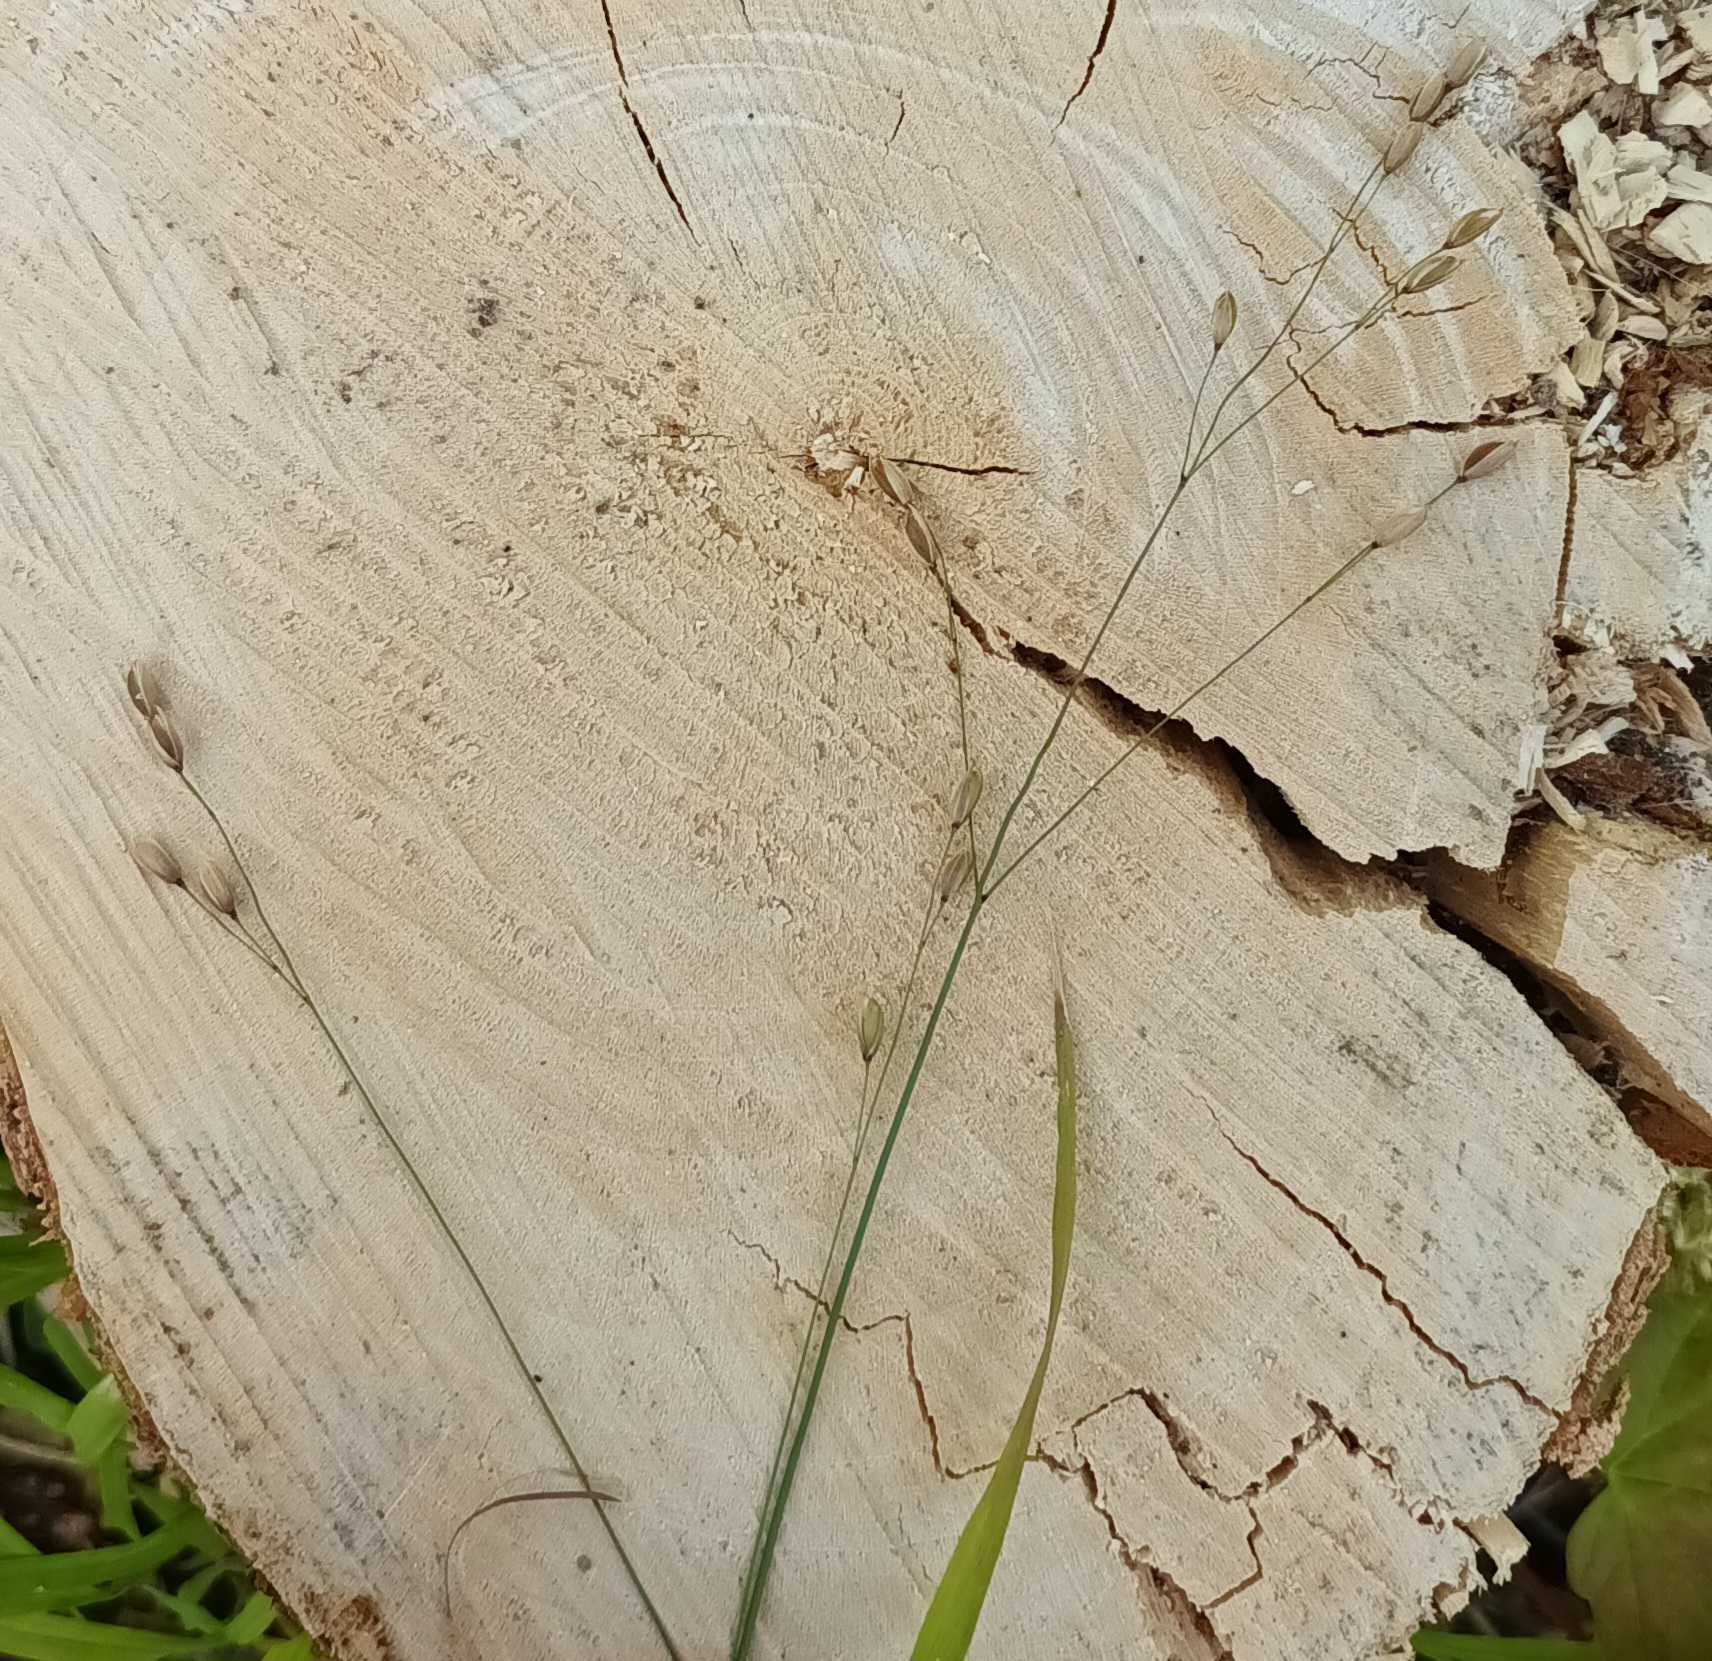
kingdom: Plantae
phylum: Tracheophyta
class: Liliopsida
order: Poales
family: Poaceae
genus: Melica
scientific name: Melica uniflora
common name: Enblomstret flitteraks
